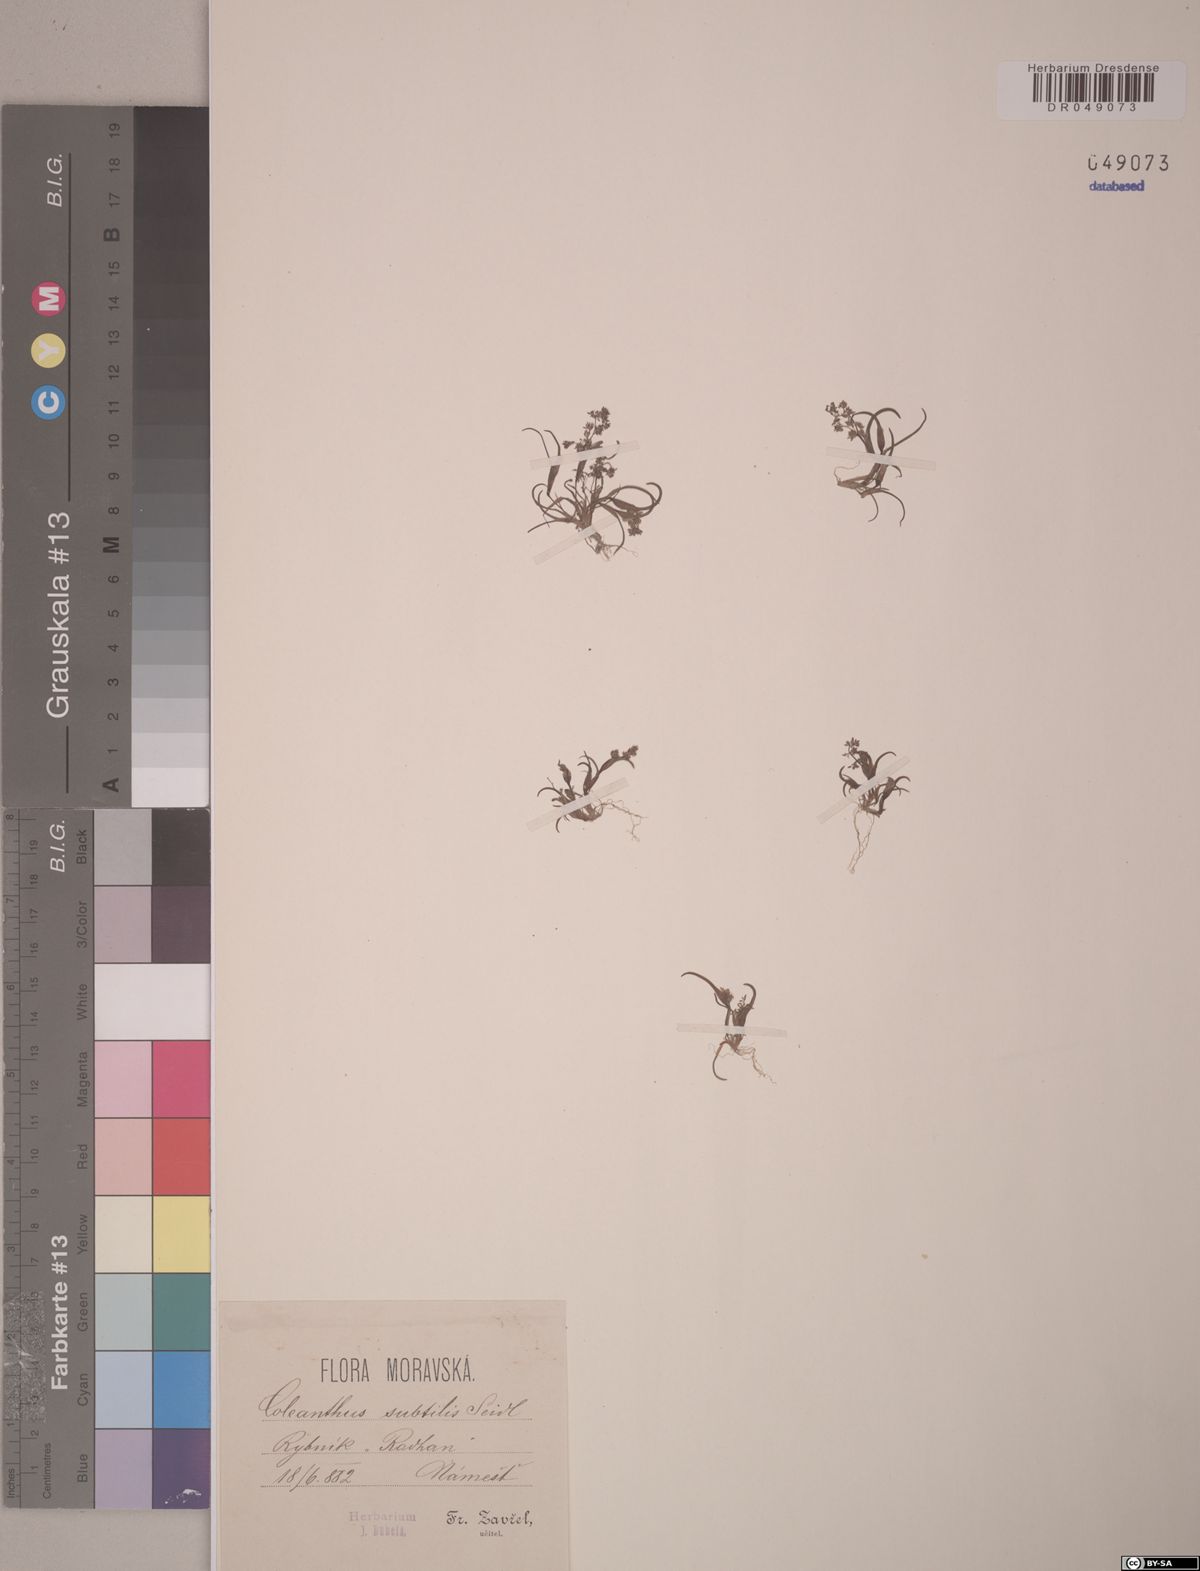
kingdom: Plantae
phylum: Tracheophyta
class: Liliopsida
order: Poales
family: Poaceae
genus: Coleanthus
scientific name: Coleanthus subtilis
